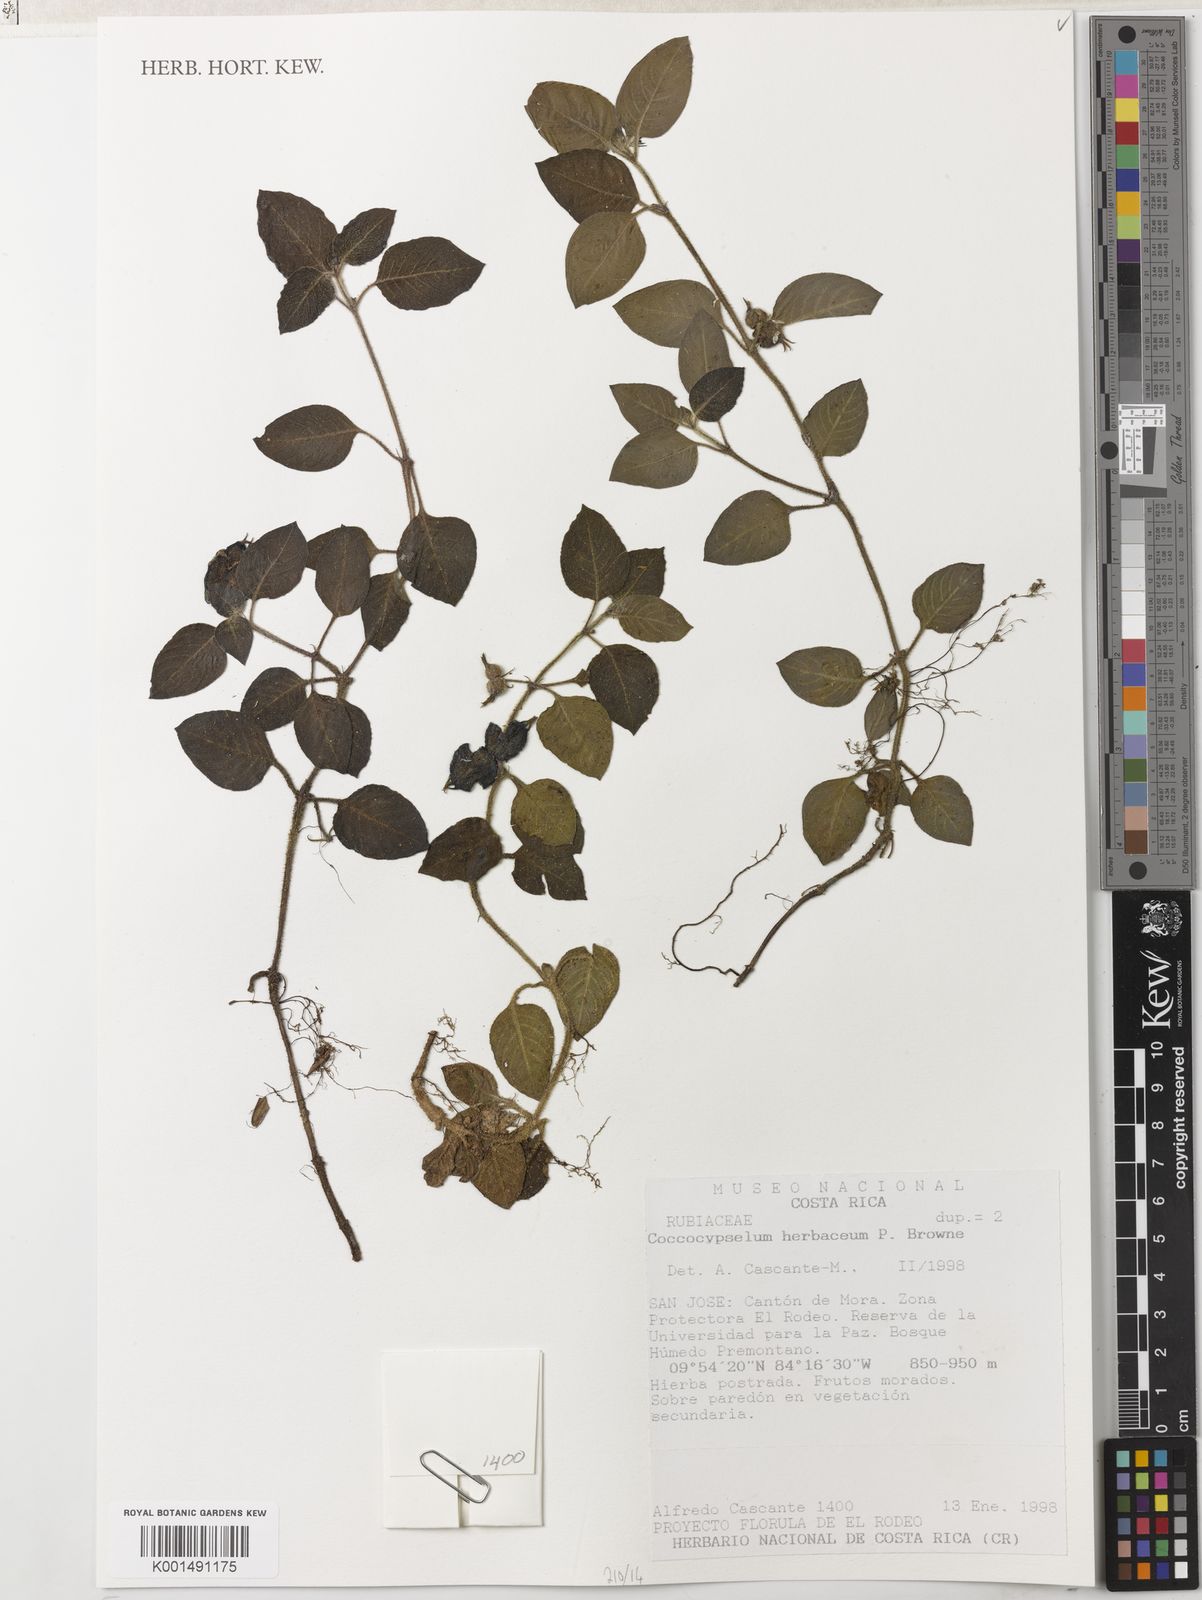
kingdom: Plantae
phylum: Tracheophyta
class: Magnoliopsida
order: Gentianales
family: Rubiaceae
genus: Coccocypselum
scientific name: Coccocypselum herbaceum
